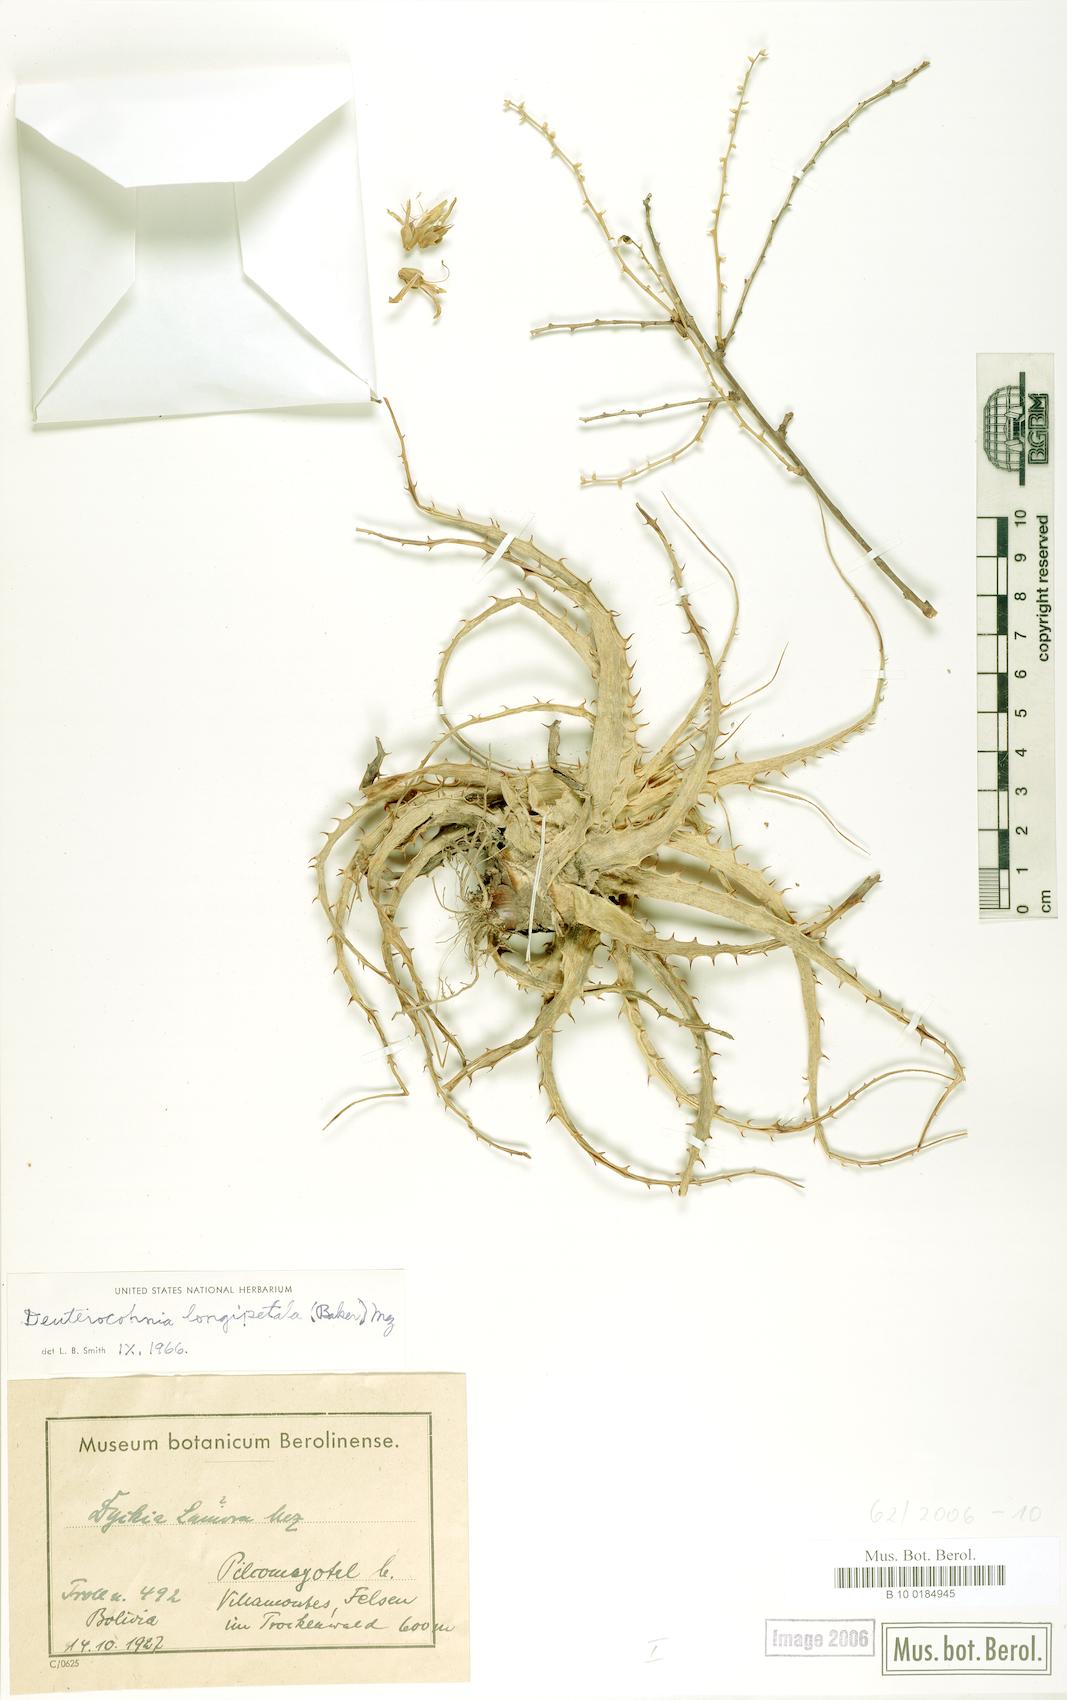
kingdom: Plantae
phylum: Tracheophyta
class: Liliopsida
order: Poales
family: Bromeliaceae
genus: Deuterocohnia
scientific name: Deuterocohnia longipetala
